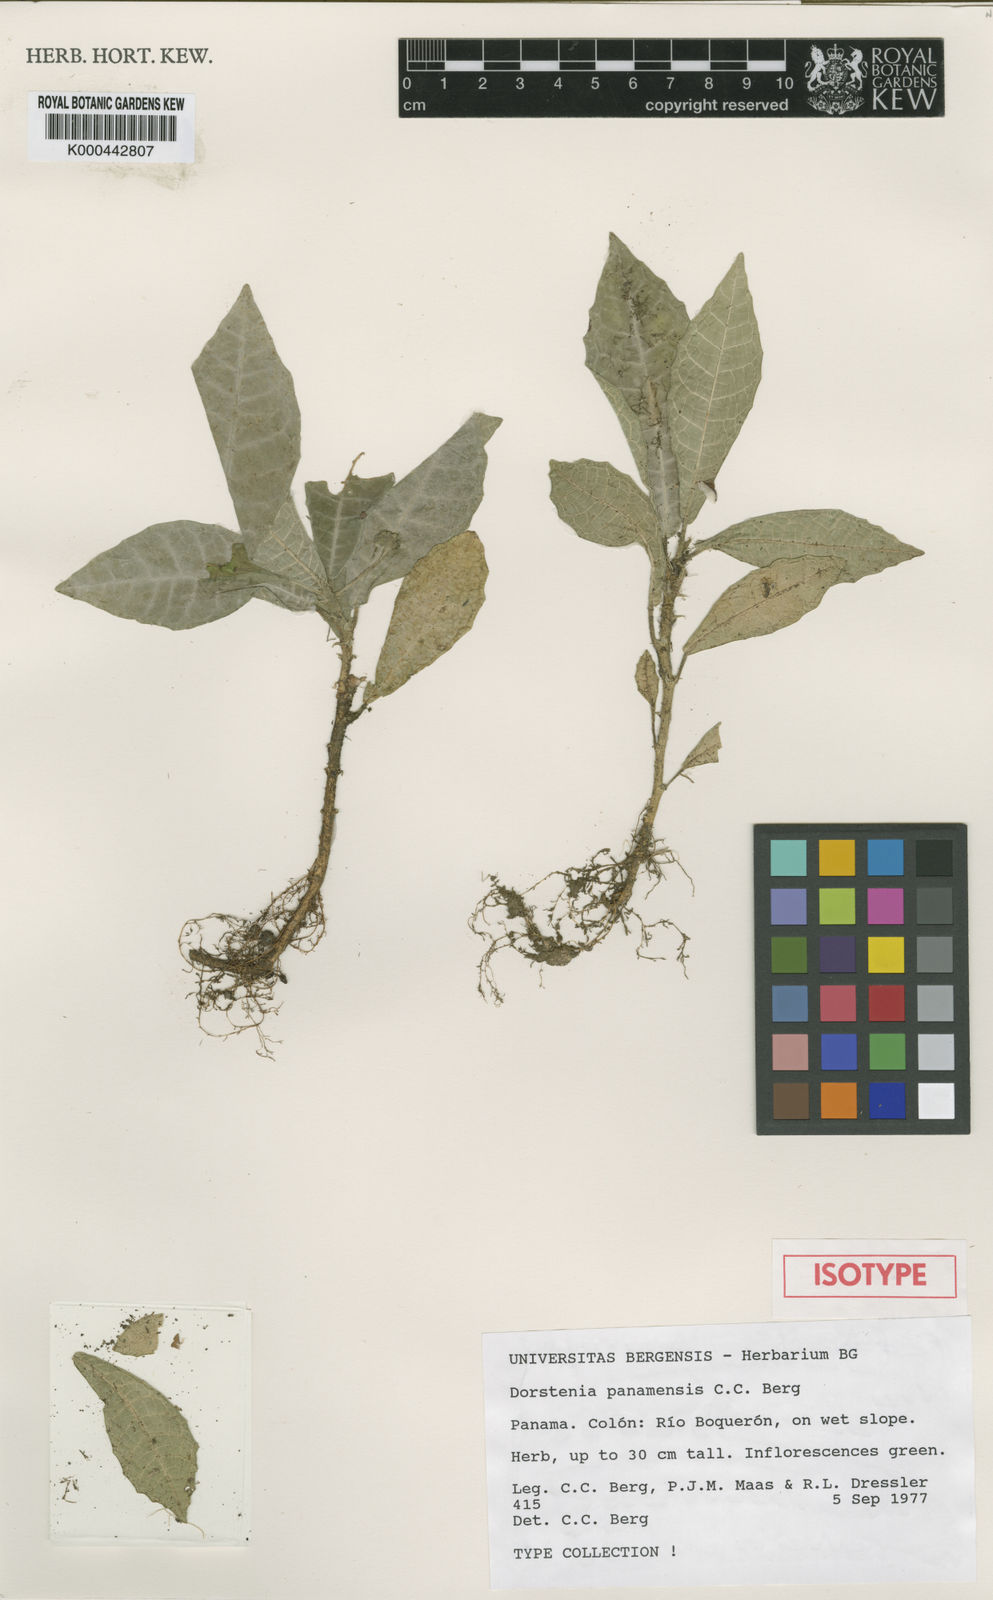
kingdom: Plantae
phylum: Tracheophyta
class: Magnoliopsida
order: Rosales
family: Moraceae
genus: Dorstenia
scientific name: Dorstenia panamensis
